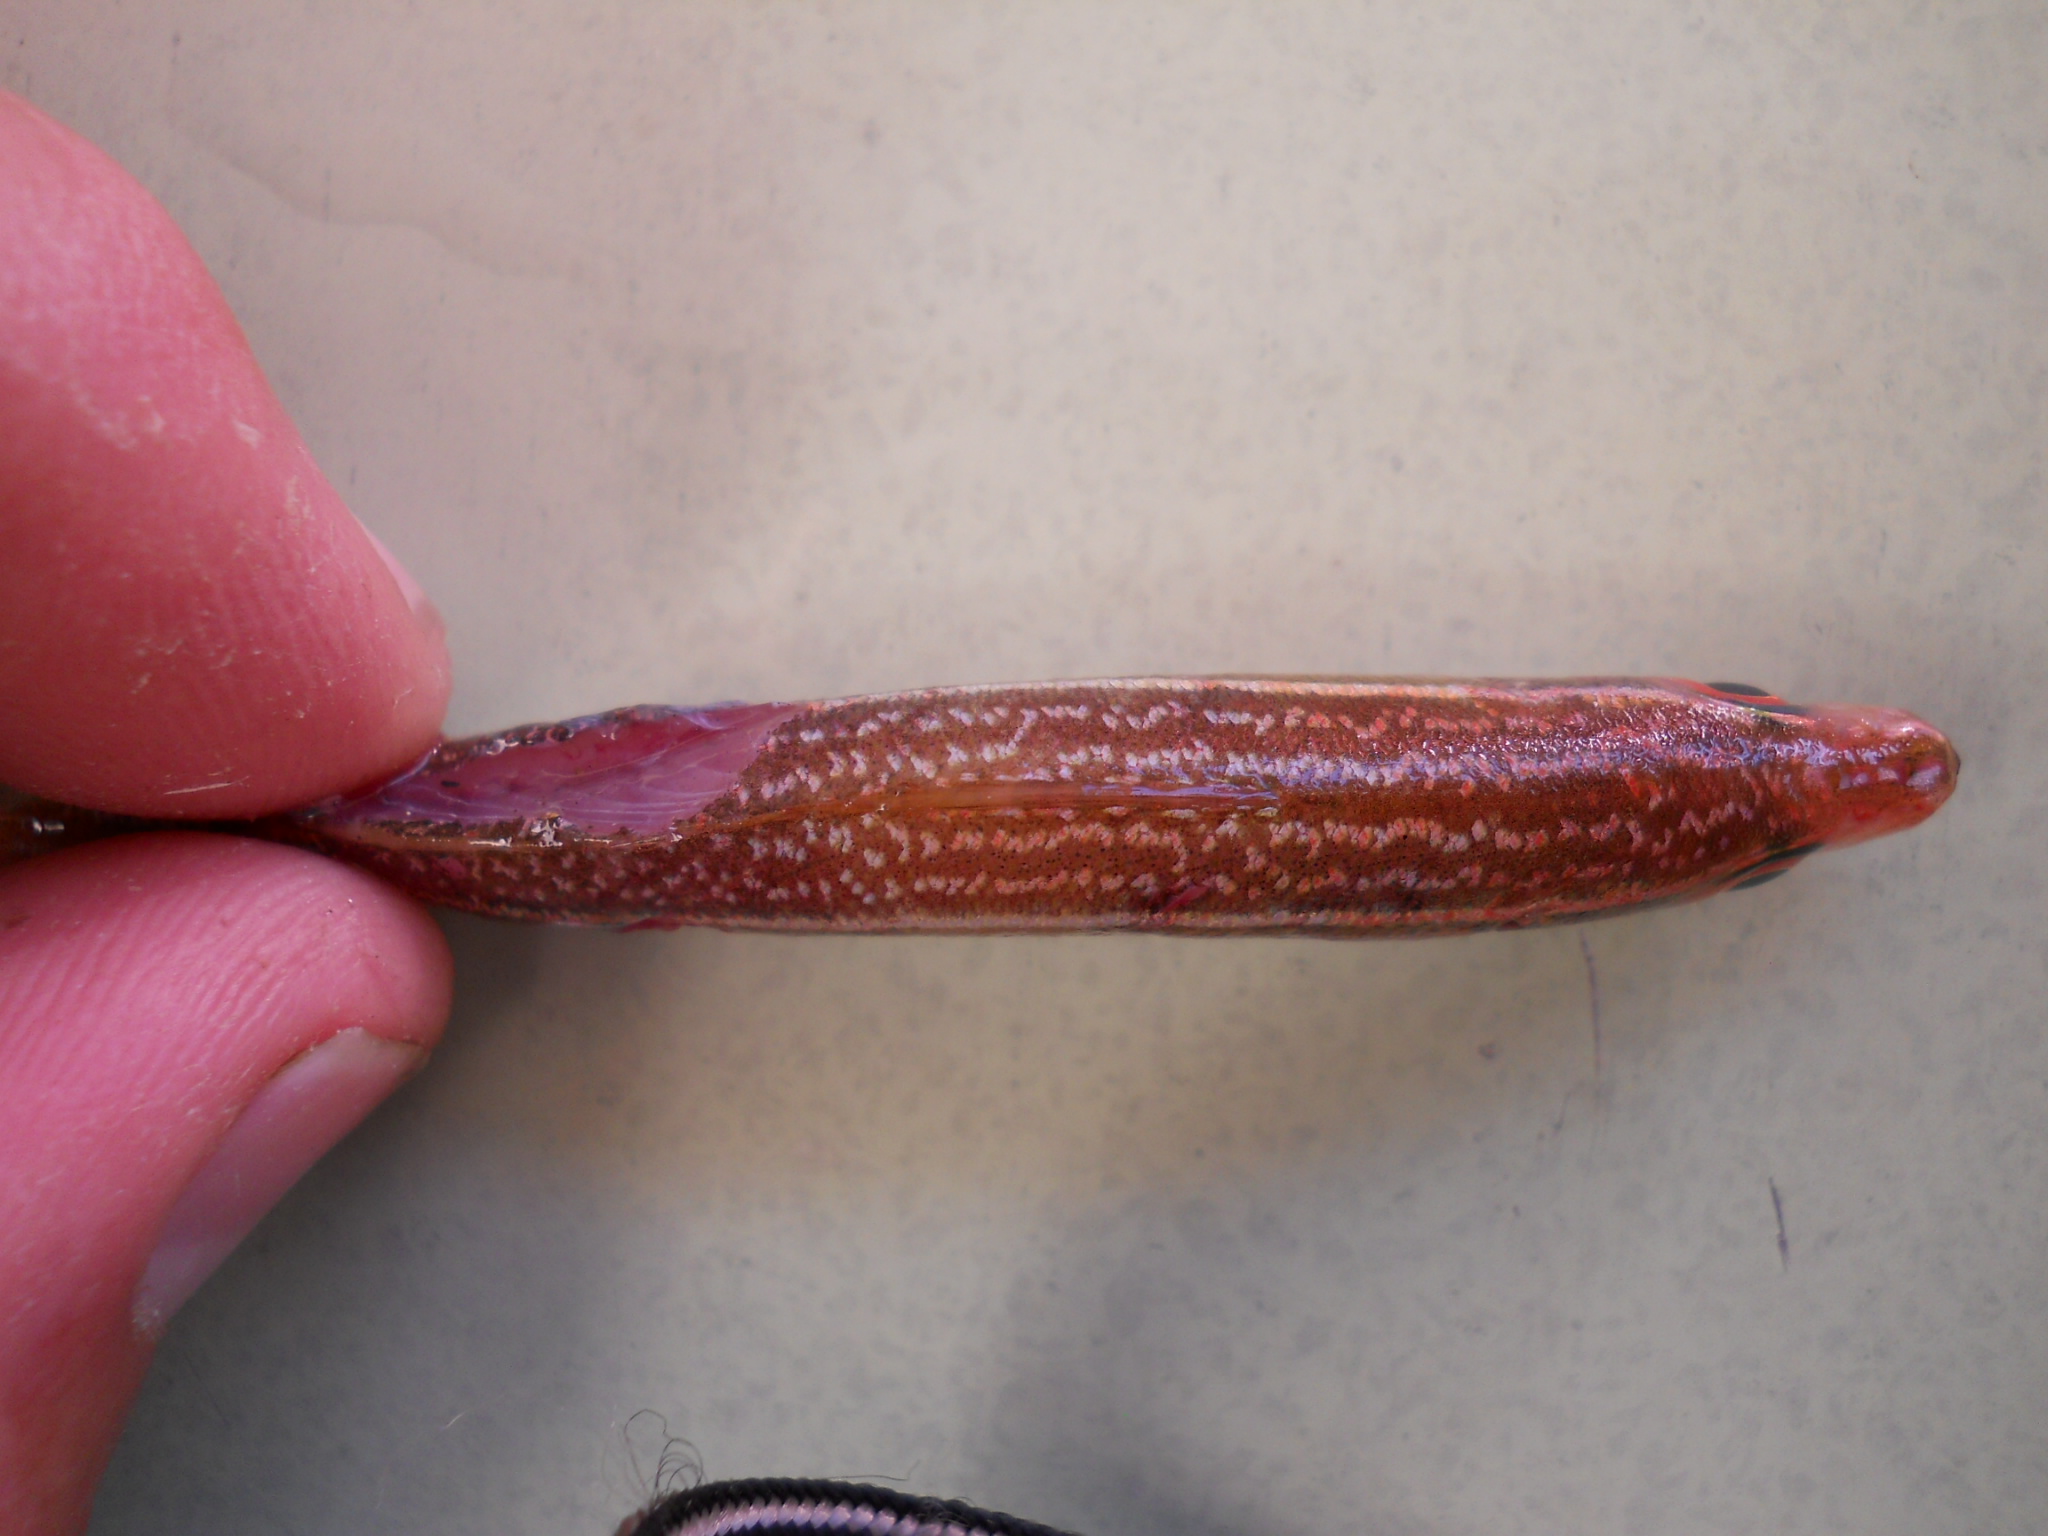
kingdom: Animalia
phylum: Chordata
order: Perciformes
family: Caesionidae
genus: Dipterygonotus
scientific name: Dipterygonotus balteatus
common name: Mottled fusilier
